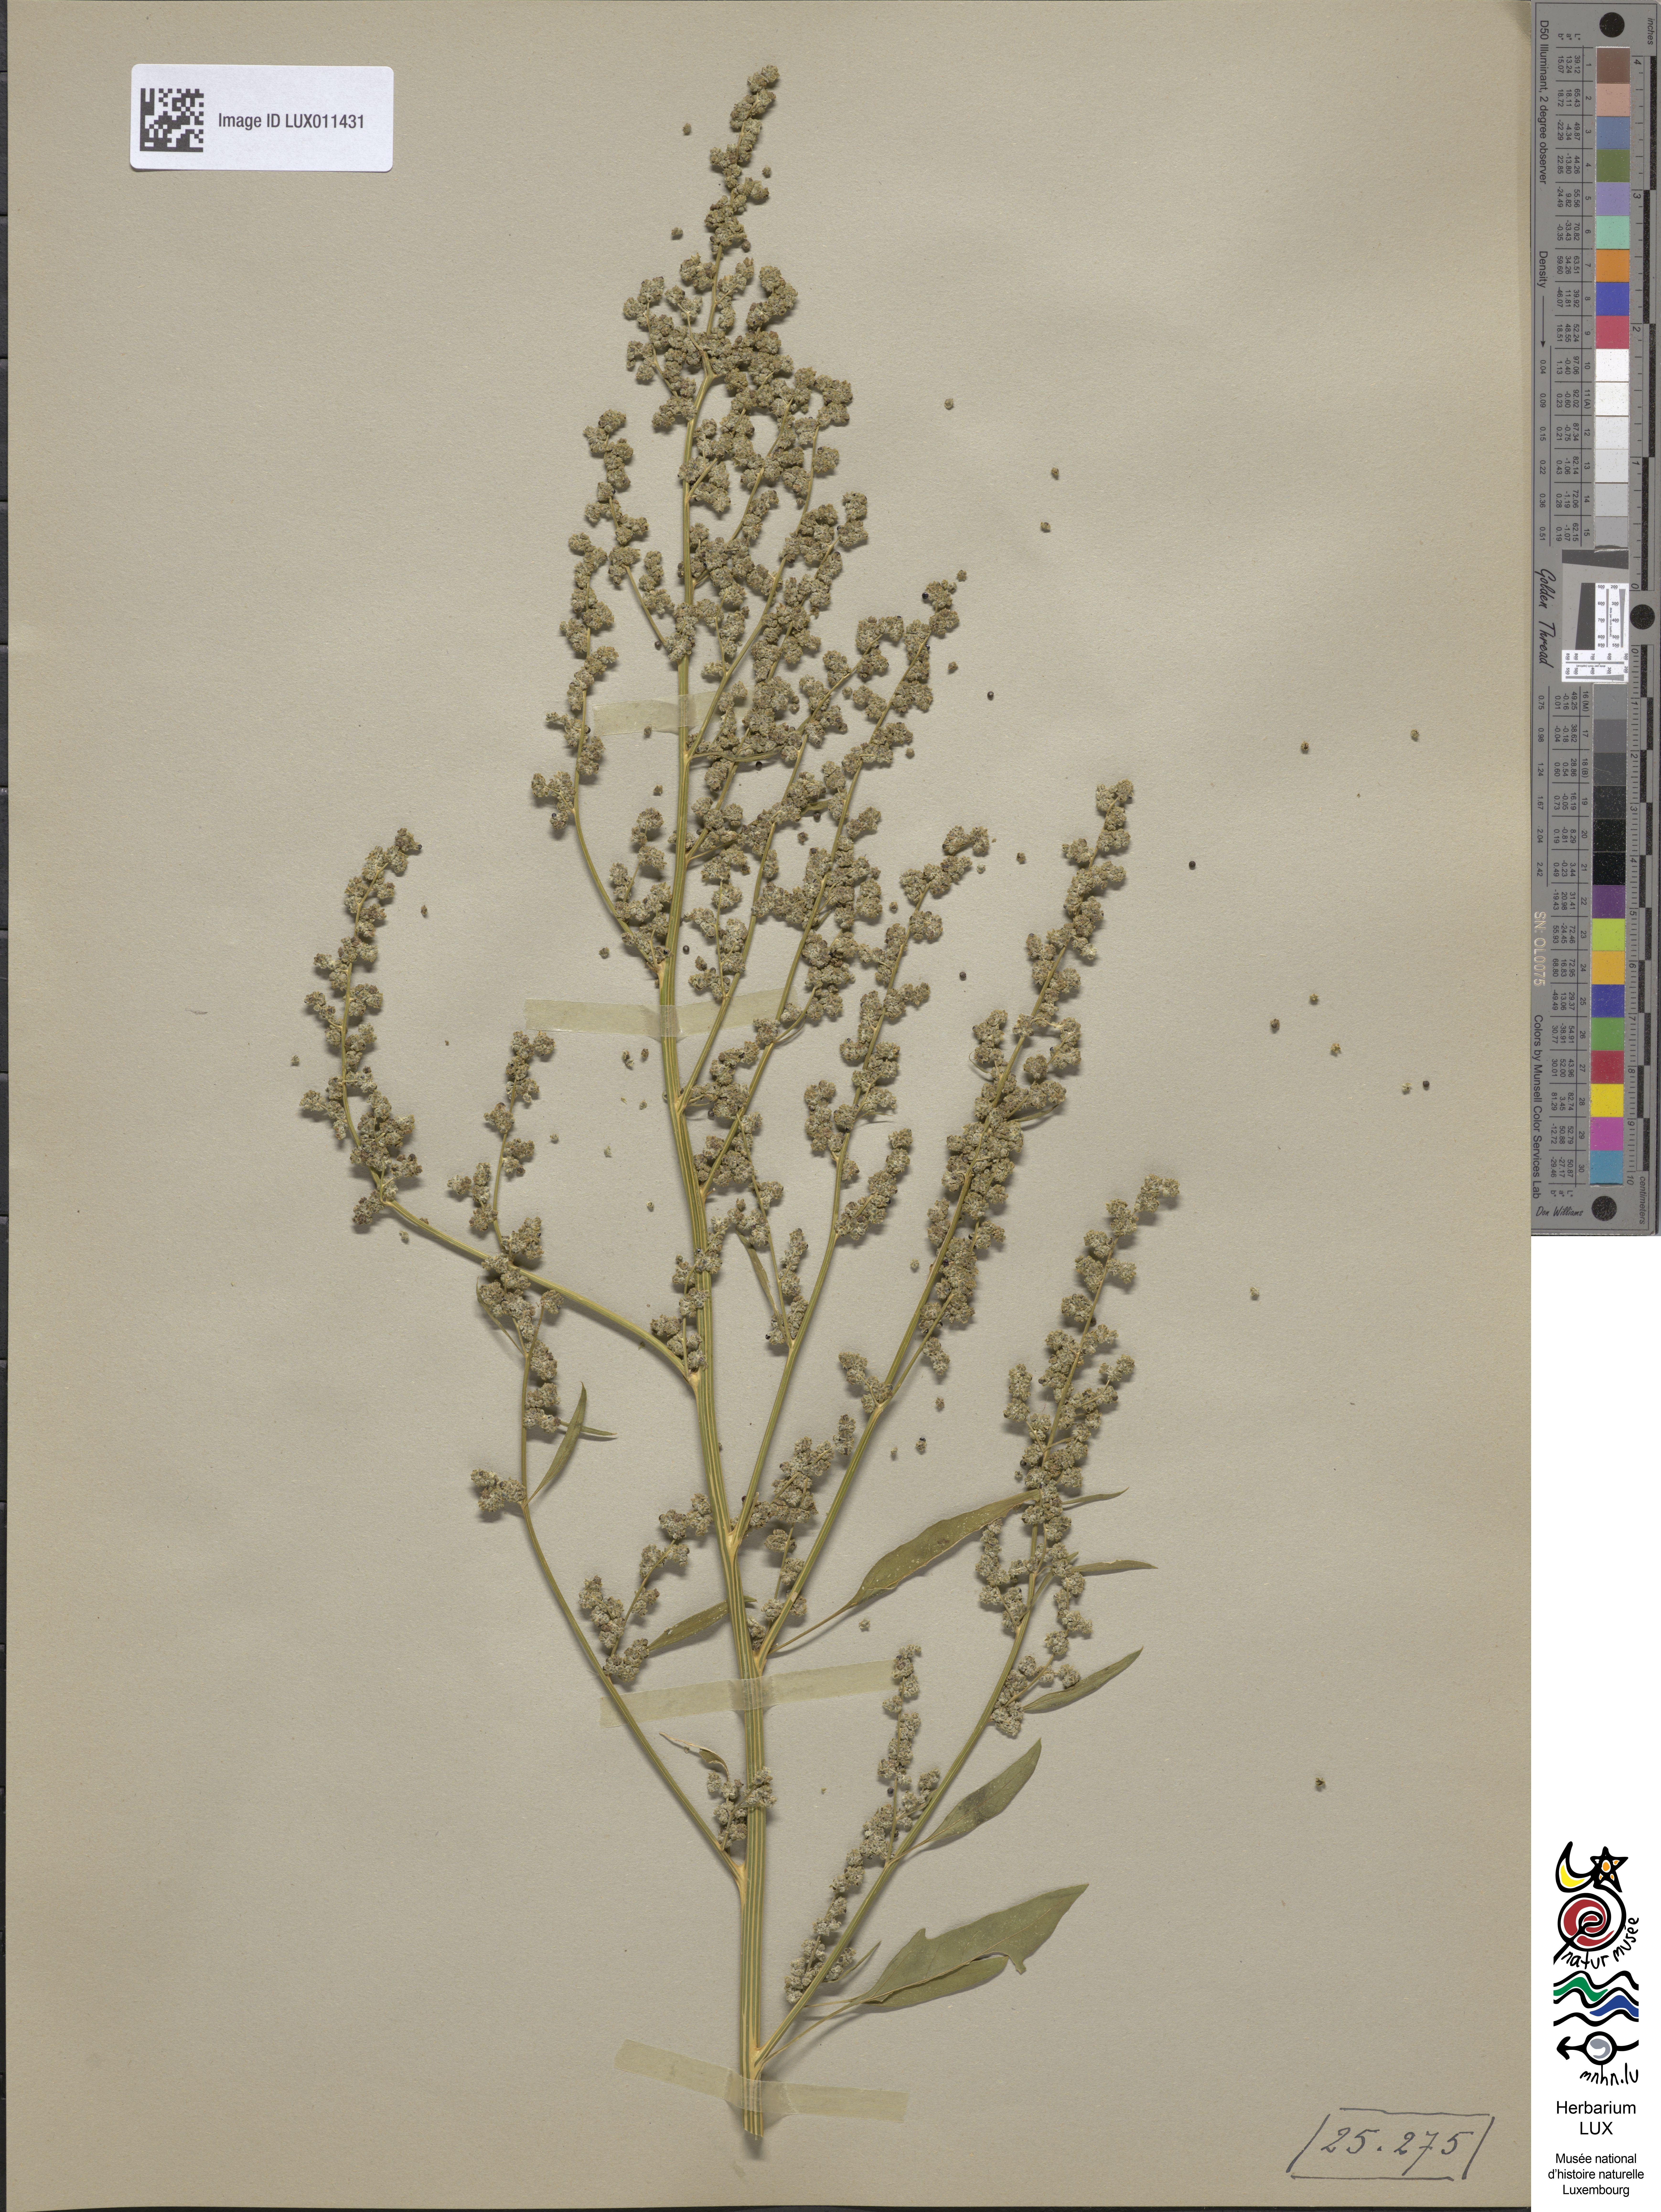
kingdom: Plantae
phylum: Tracheophyta
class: Magnoliopsida
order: Caryophyllales
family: Amaranthaceae
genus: Chenopodium
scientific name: Chenopodium album
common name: Fat-hen
